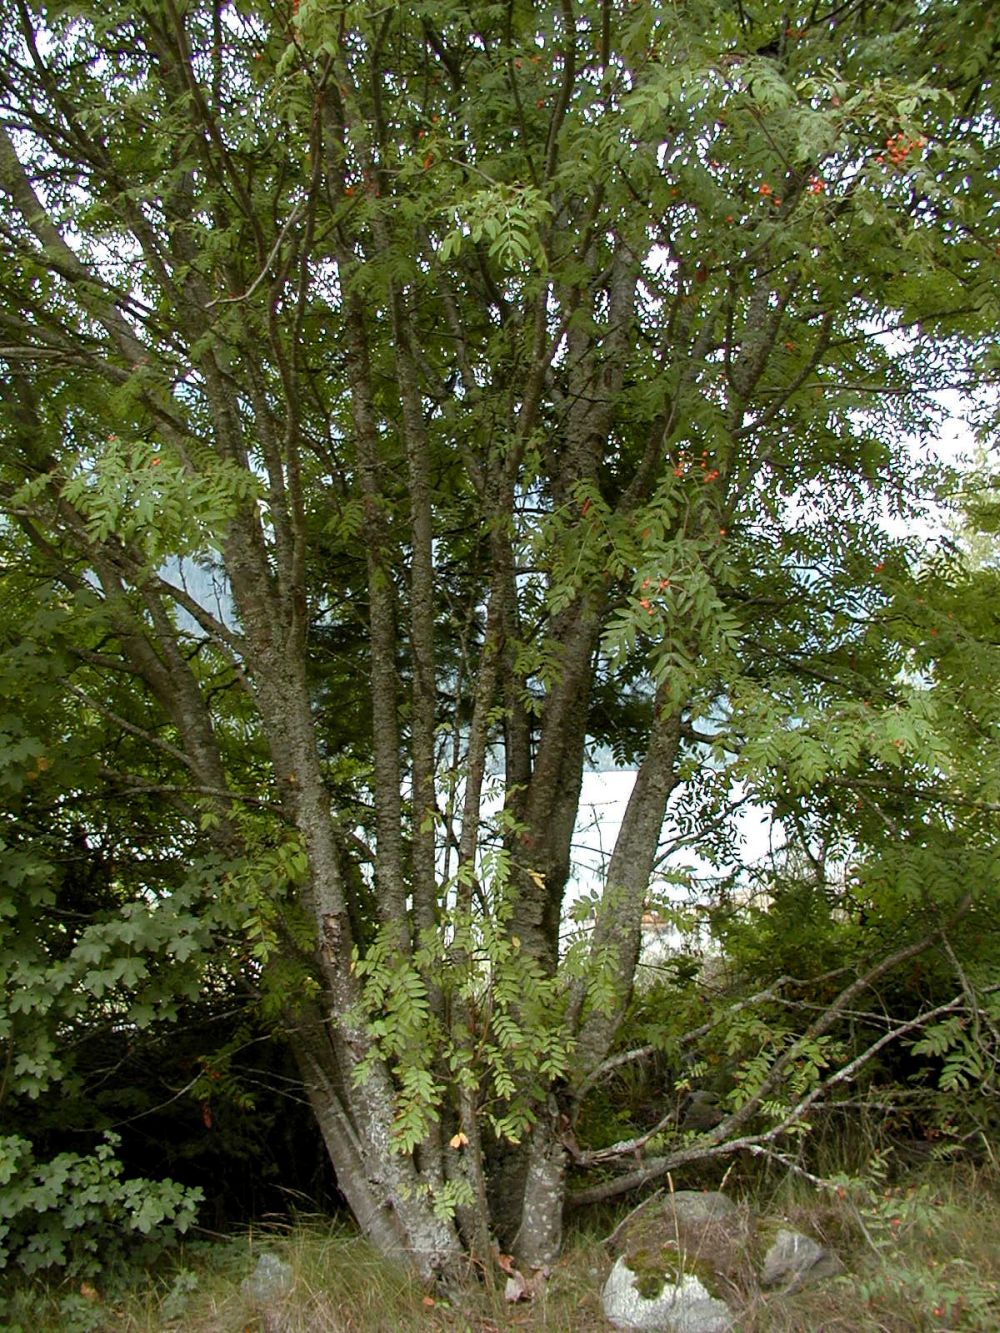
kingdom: Plantae
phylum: Tracheophyta
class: Magnoliopsida
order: Rosales
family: Rosaceae
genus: Sorbus
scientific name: Sorbus sitchensis
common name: Sitka mountain-ash
